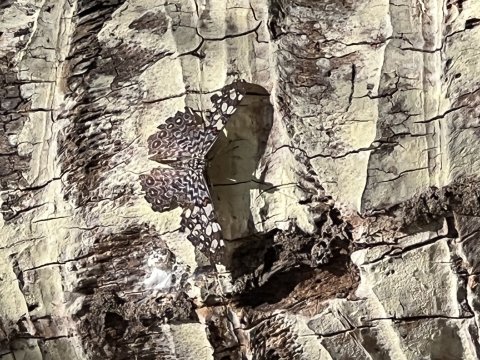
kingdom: Animalia
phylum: Arthropoda
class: Insecta
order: Lepidoptera
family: Nymphalidae
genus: Hamadryas
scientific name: Hamadryas feronia
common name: Variable Cracker
